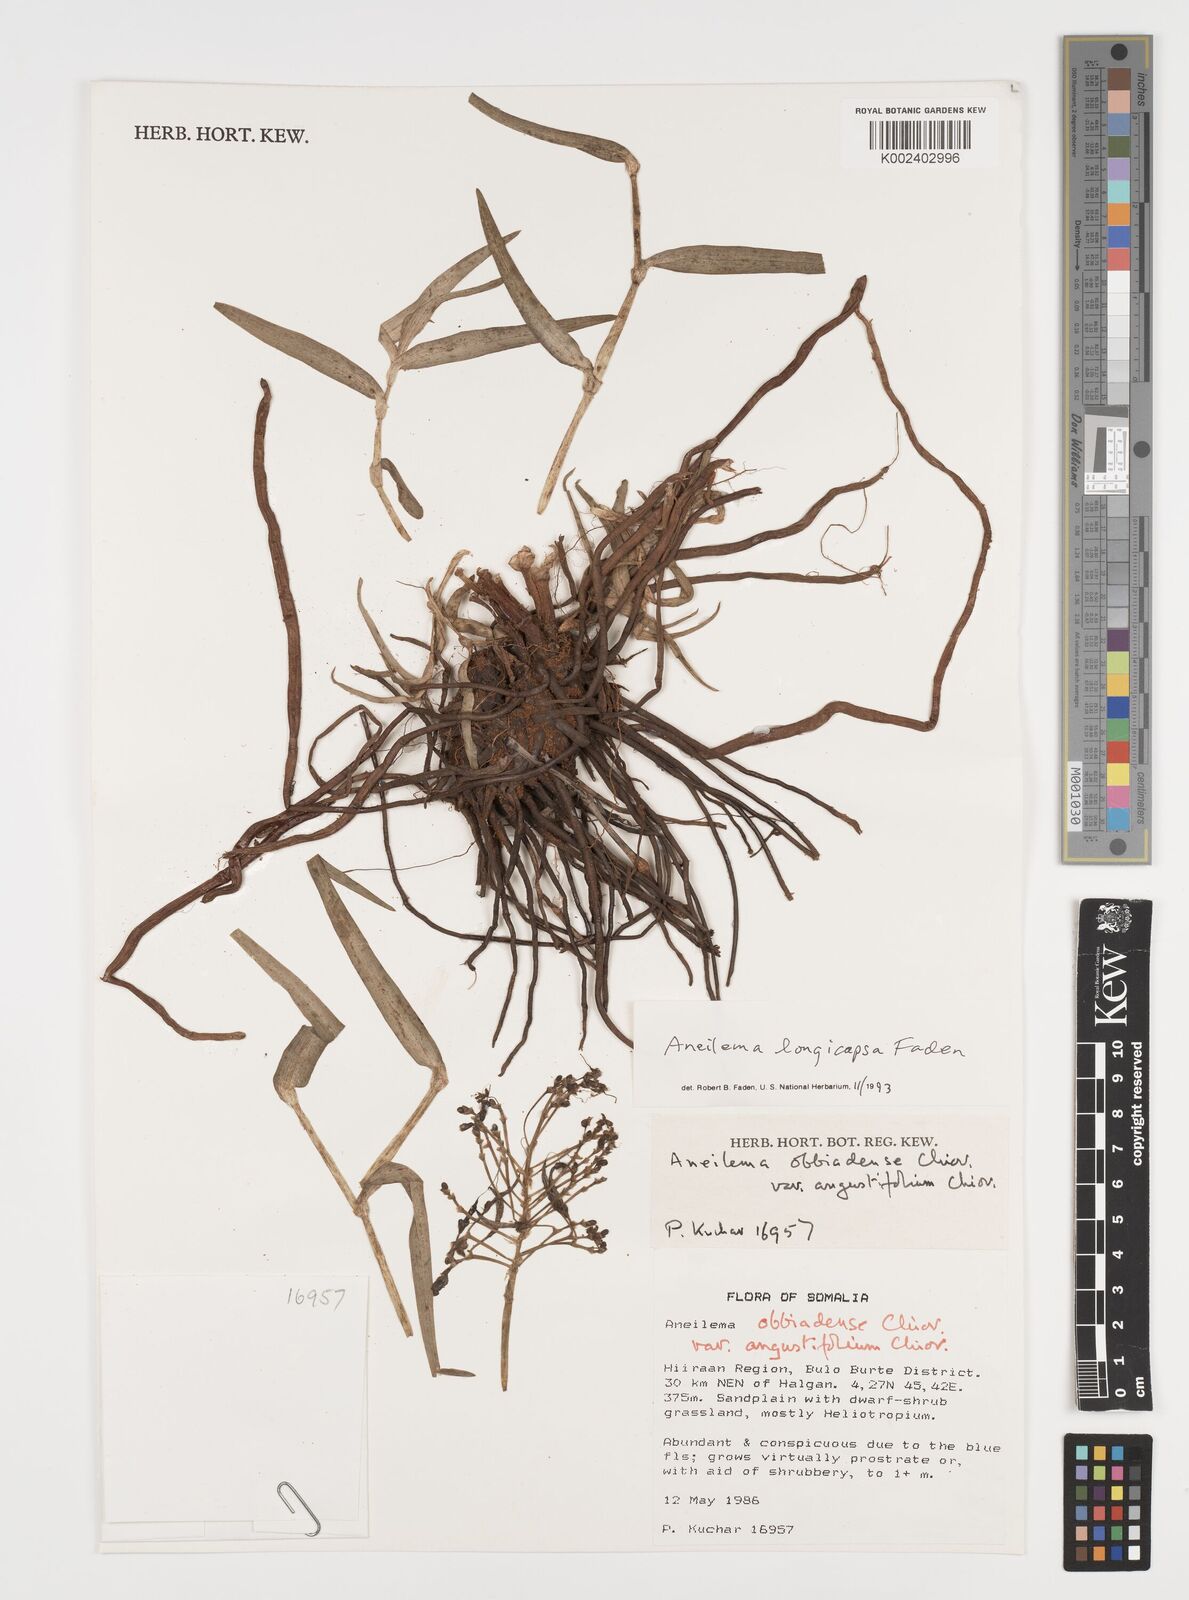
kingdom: Plantae
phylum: Tracheophyta
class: Liliopsida
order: Commelinales
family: Commelinaceae
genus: Aneilema
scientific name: Aneilema longicapsa
